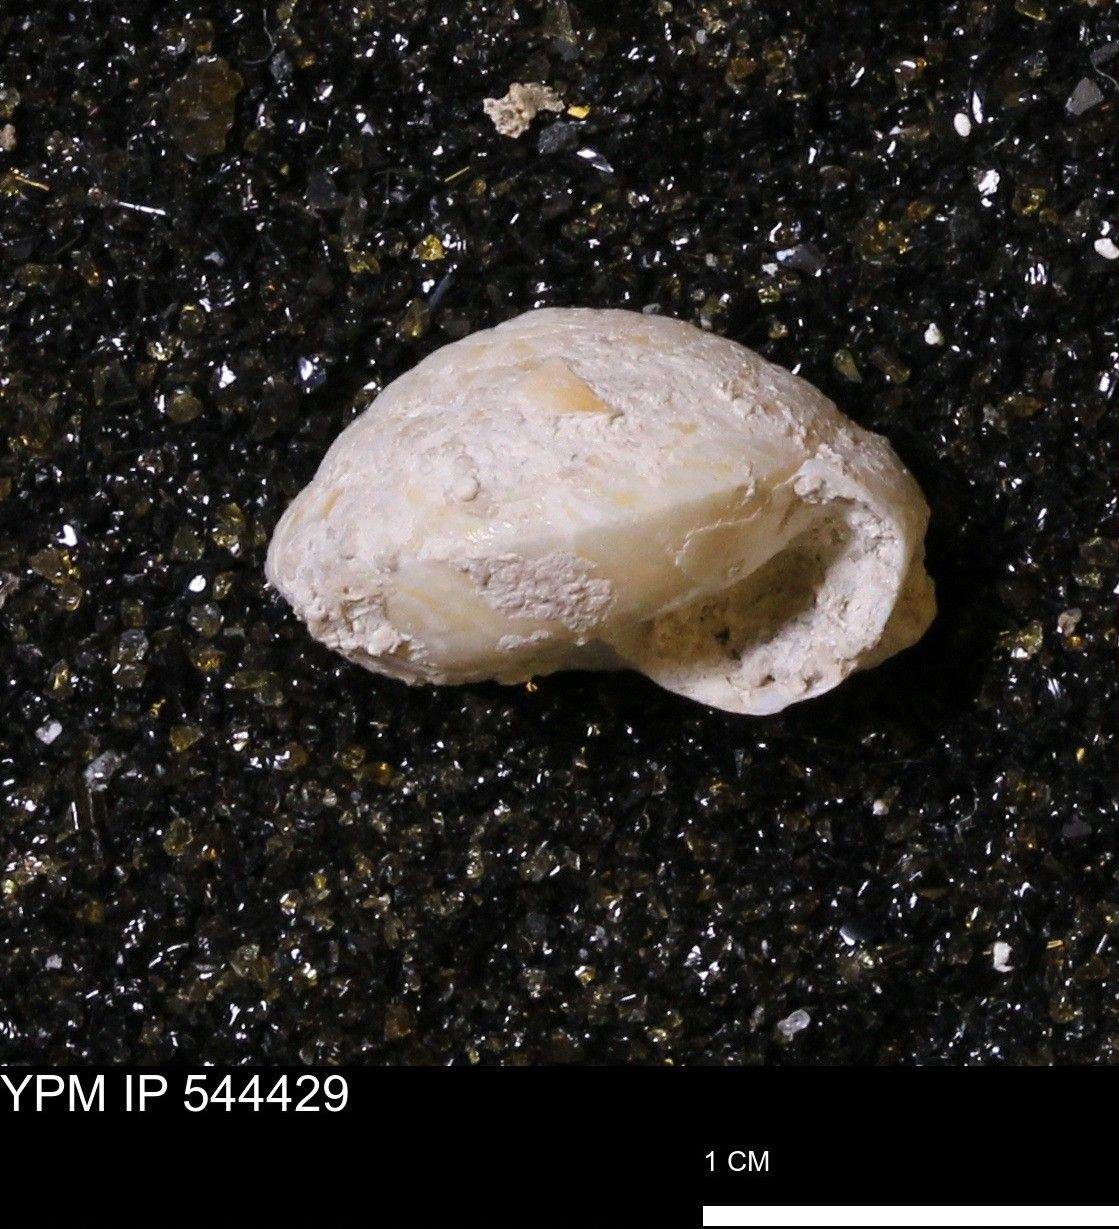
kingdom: Animalia
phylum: Mollusca
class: Gastropoda
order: Stylommatophora
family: Gastrodontidae
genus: Poecilozonites
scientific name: Poecilozonites circumfirmatus
